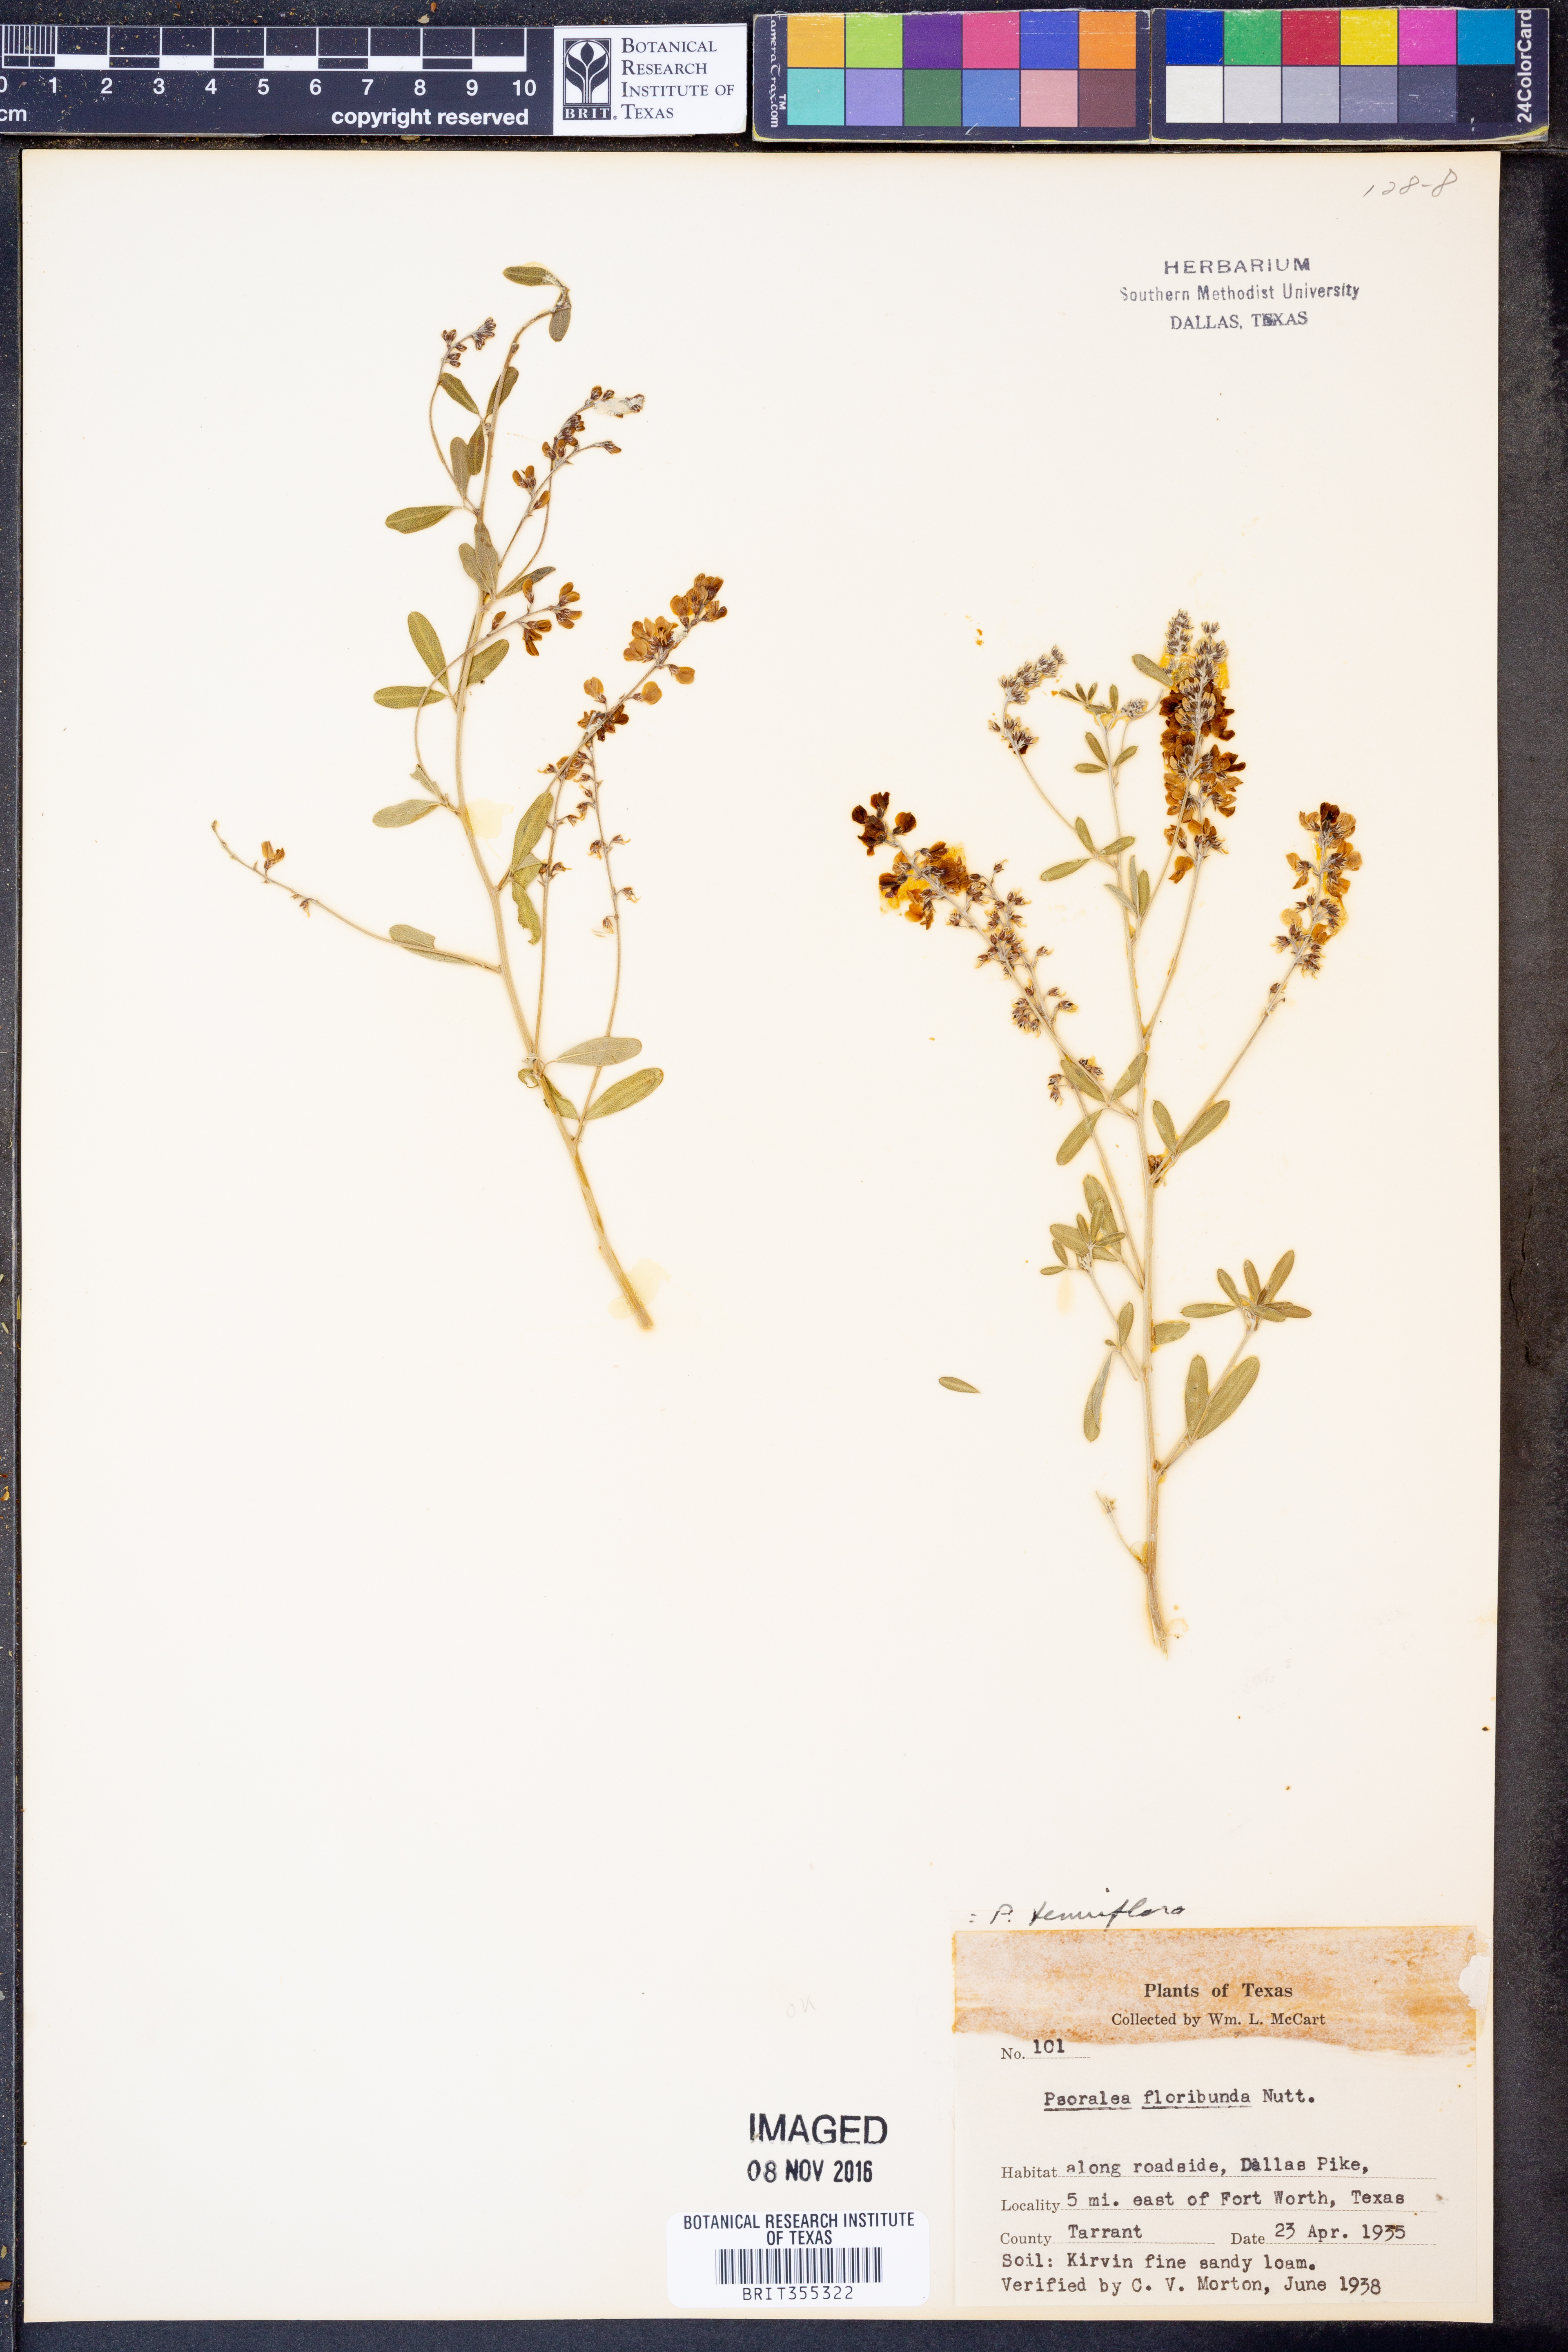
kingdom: Plantae
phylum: Tracheophyta
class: Magnoliopsida
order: Fabales
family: Fabaceae
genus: Pediomelum
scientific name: Pediomelum tenuiflorum
